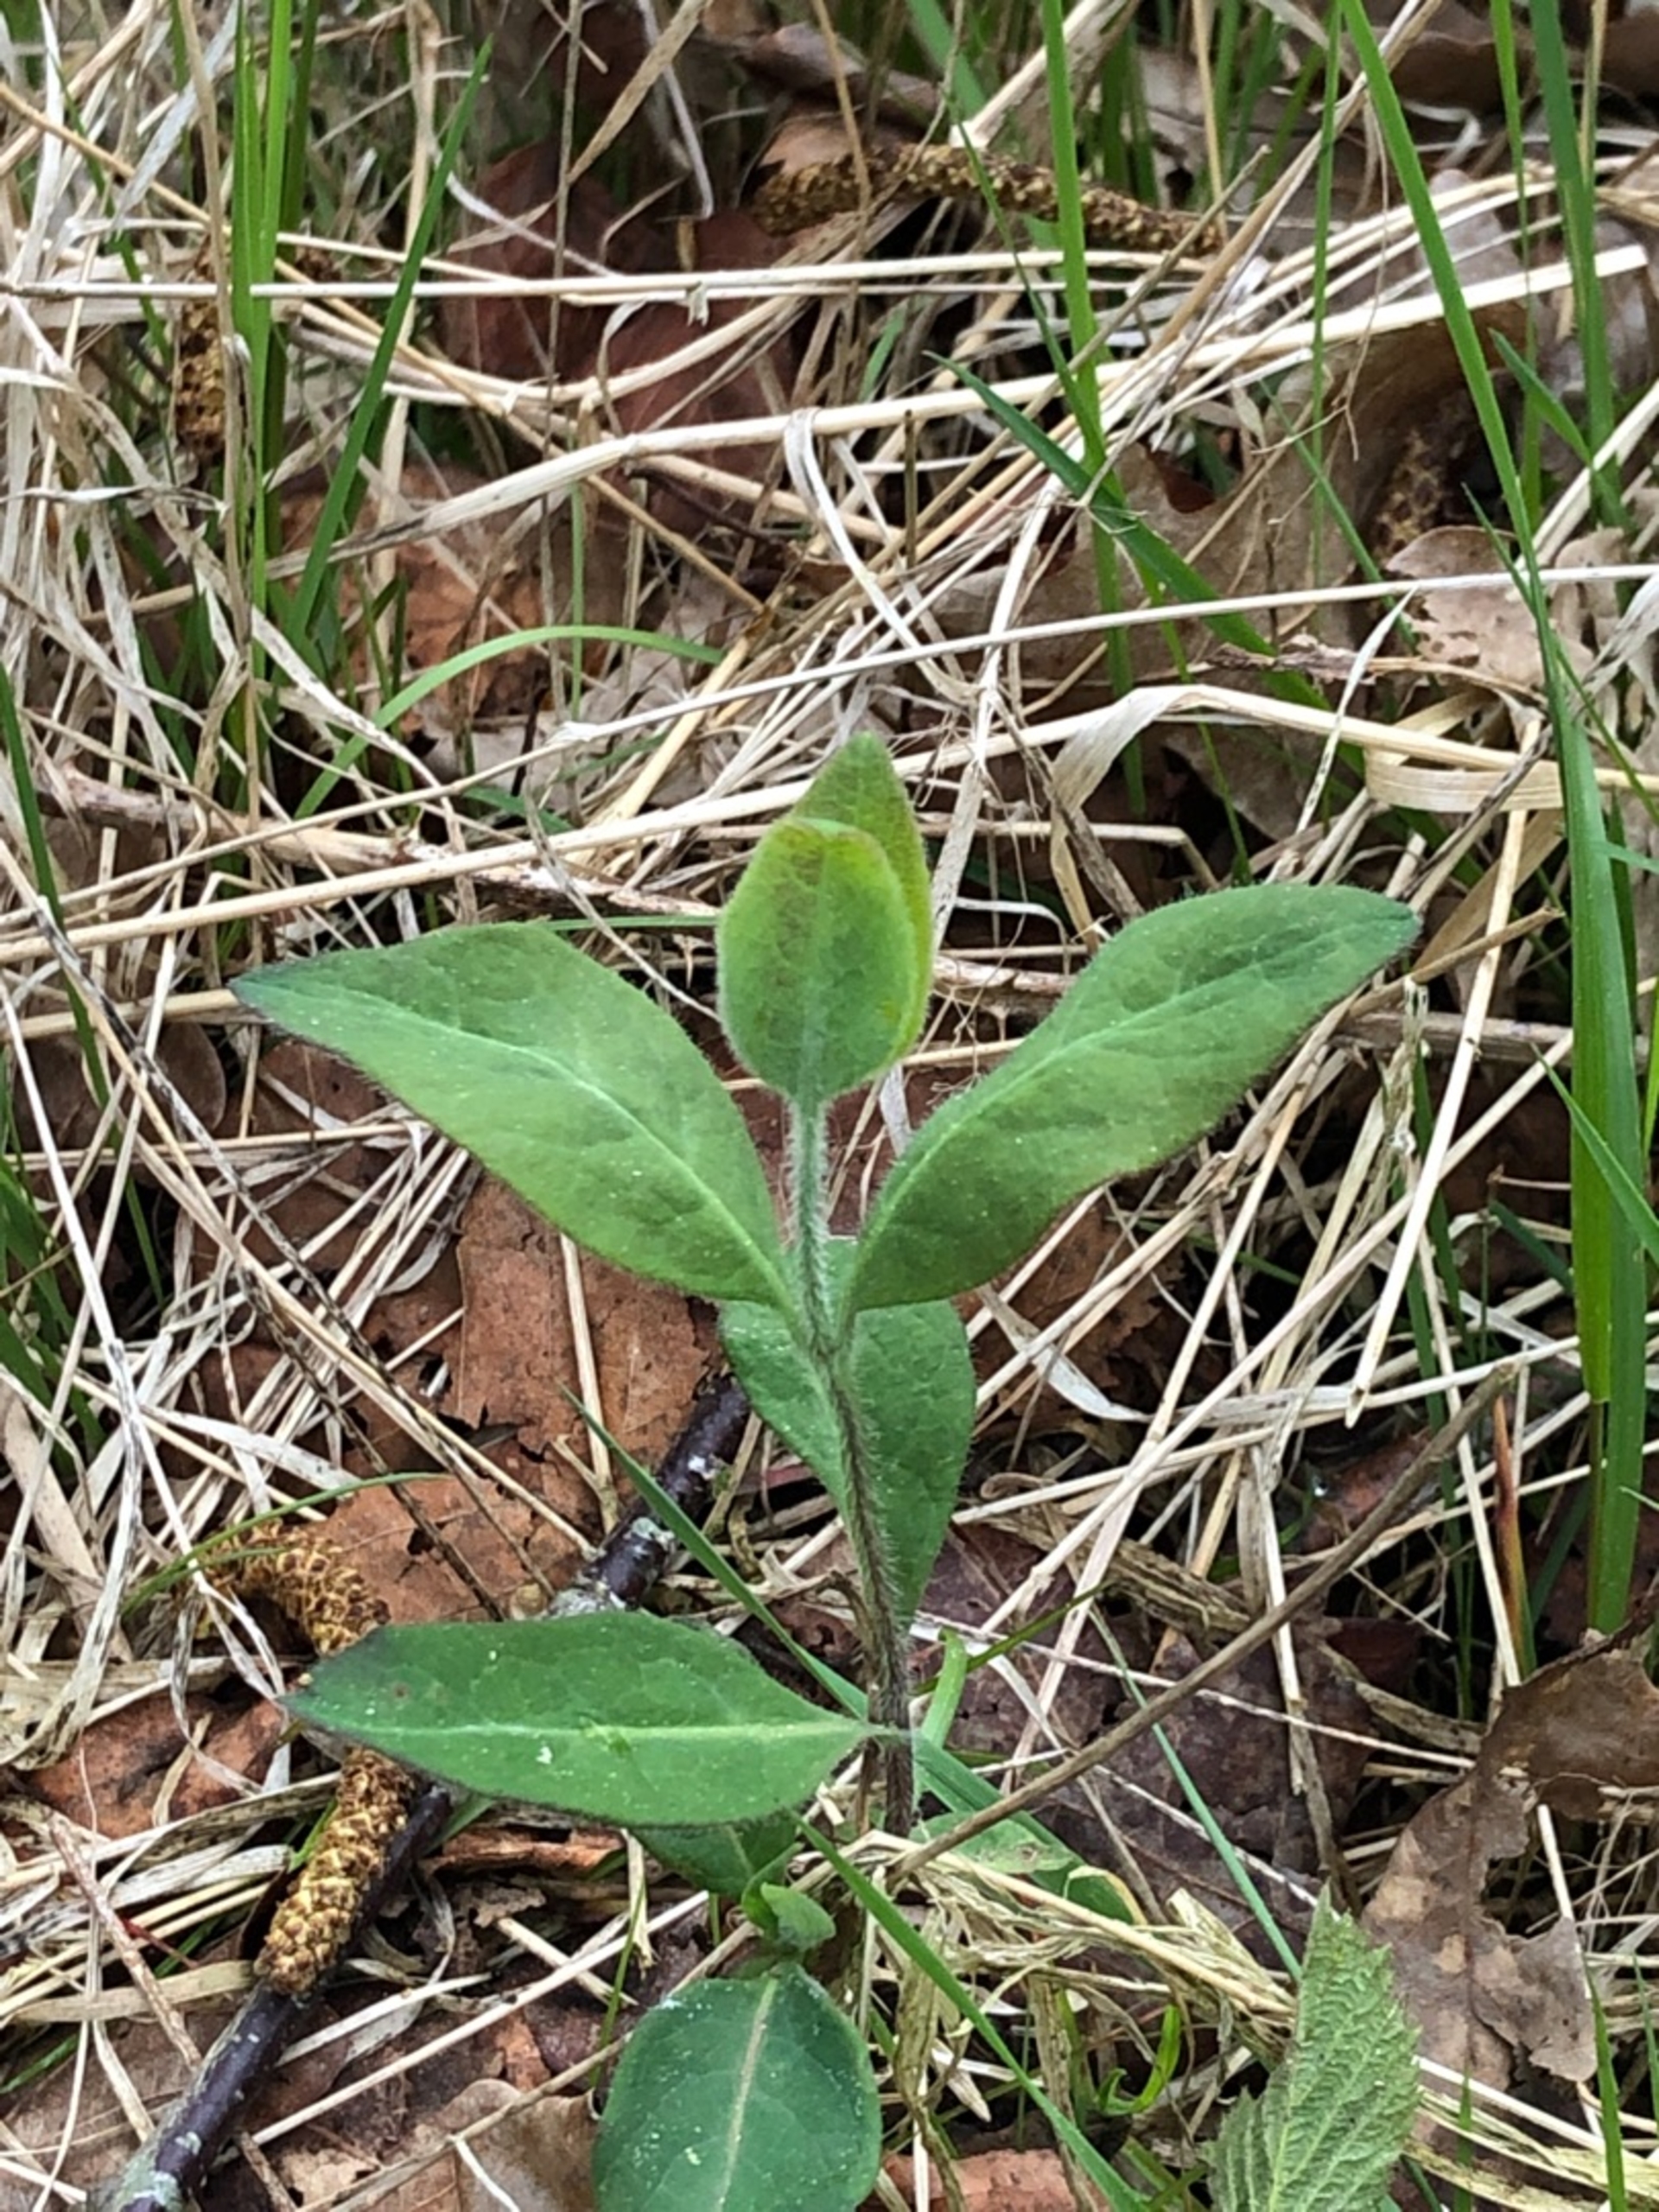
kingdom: Plantae
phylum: Tracheophyta
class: Magnoliopsida
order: Dipsacales
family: Caprifoliaceae
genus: Lonicera
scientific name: Lonicera periclymenum
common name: Almindelig gedeblad
